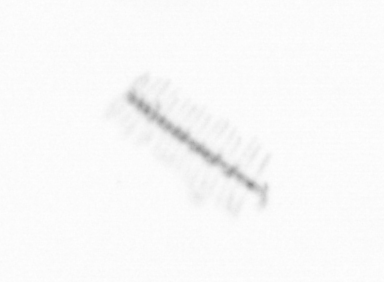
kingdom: Chromista
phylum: Ochrophyta
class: Bacillariophyceae
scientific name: Bacillariophyceae
